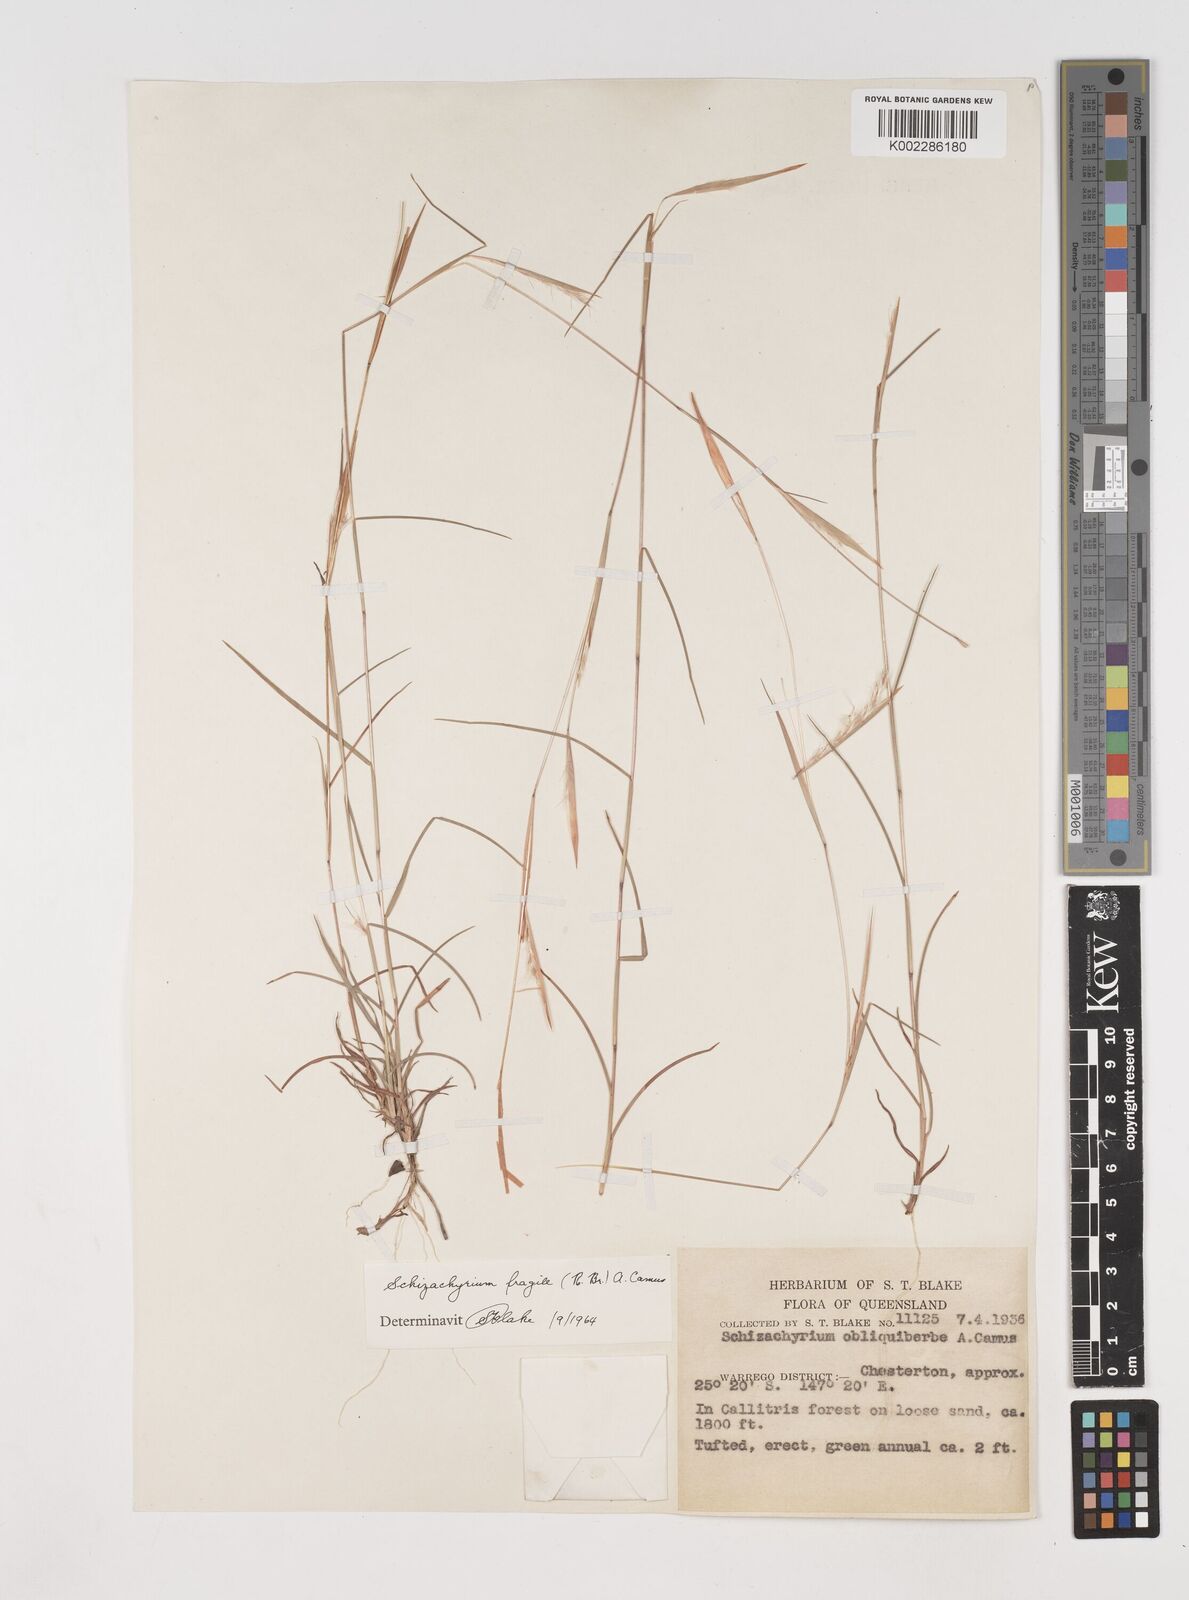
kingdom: Plantae
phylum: Tracheophyta
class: Liliopsida
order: Poales
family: Poaceae
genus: Schizachyrium
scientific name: Schizachyrium fragile
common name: Red spathe grass
